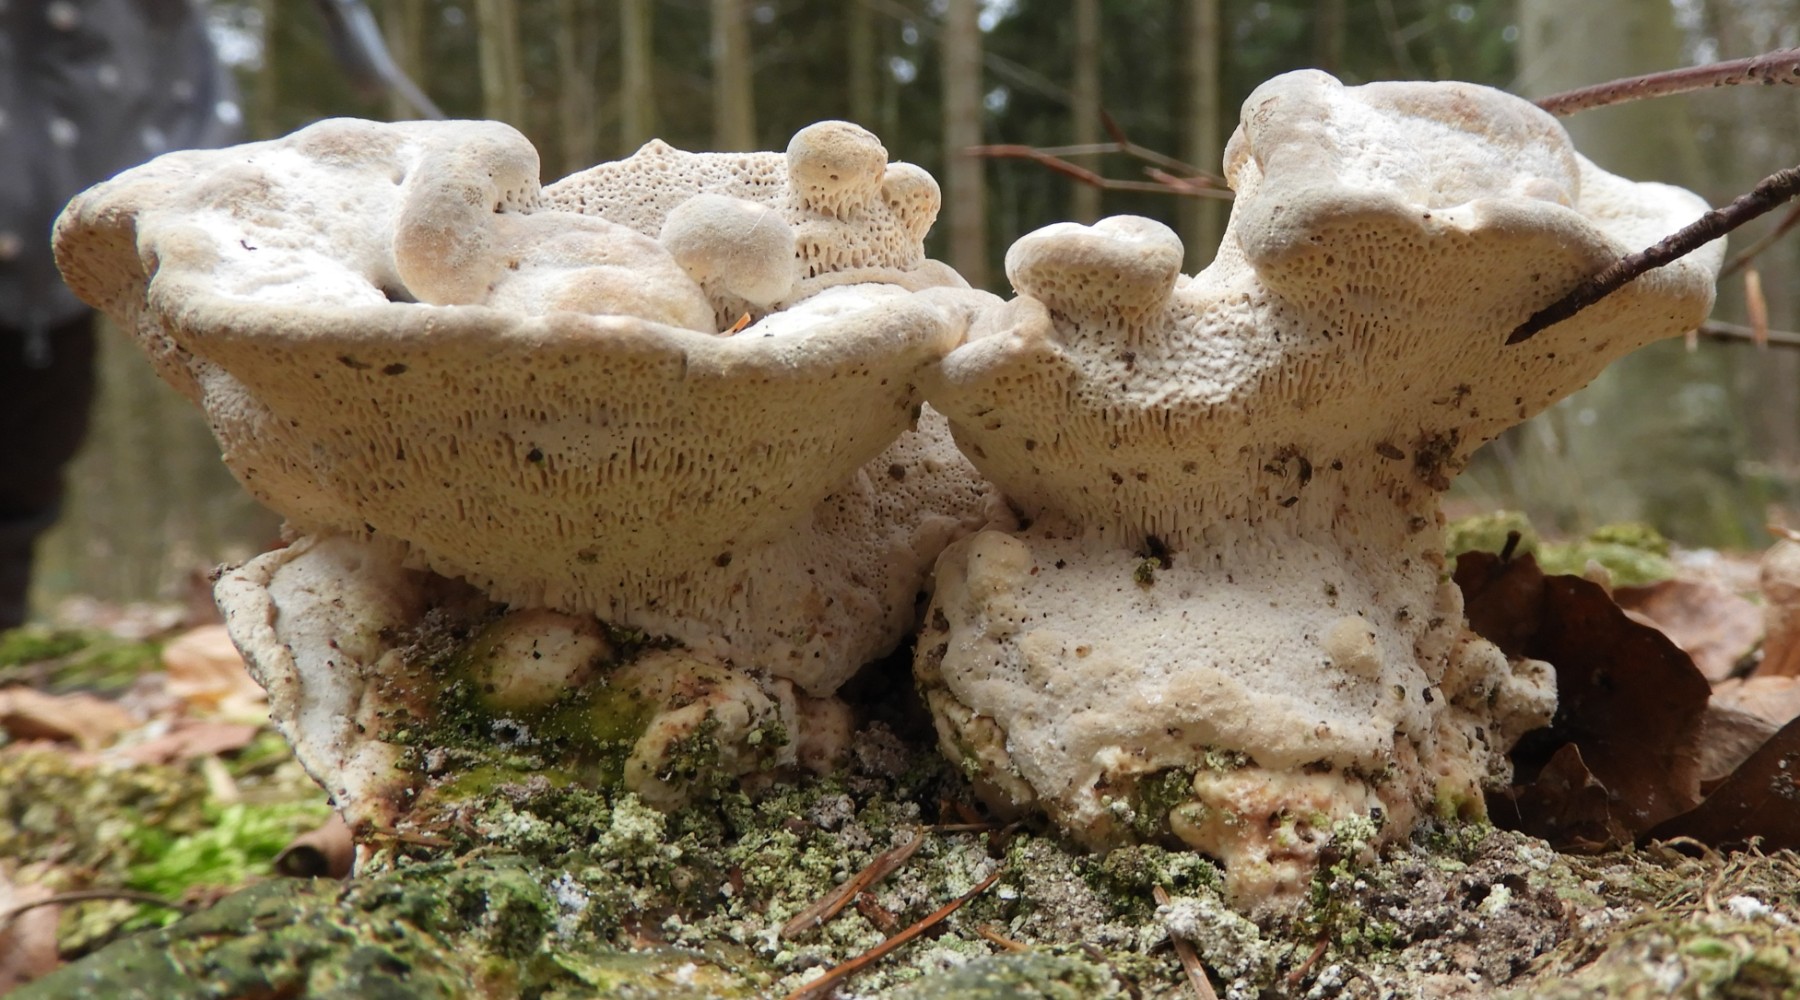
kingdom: Fungi
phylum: Basidiomycota
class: Agaricomycetes
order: Polyporales
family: Polyporaceae
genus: Trametes
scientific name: Trametes gibbosa
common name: puklet læderporesvamp
